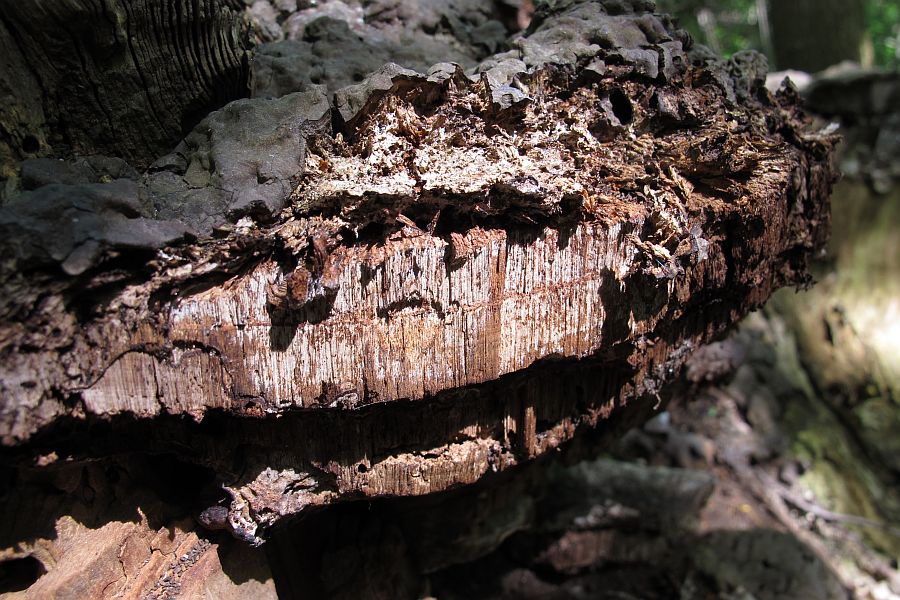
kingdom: Fungi
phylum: Basidiomycota
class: Agaricomycetes
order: Polyporales
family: Polyporaceae
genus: Ganoderma
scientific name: Ganoderma adspersum
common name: grov lakporesvamp
